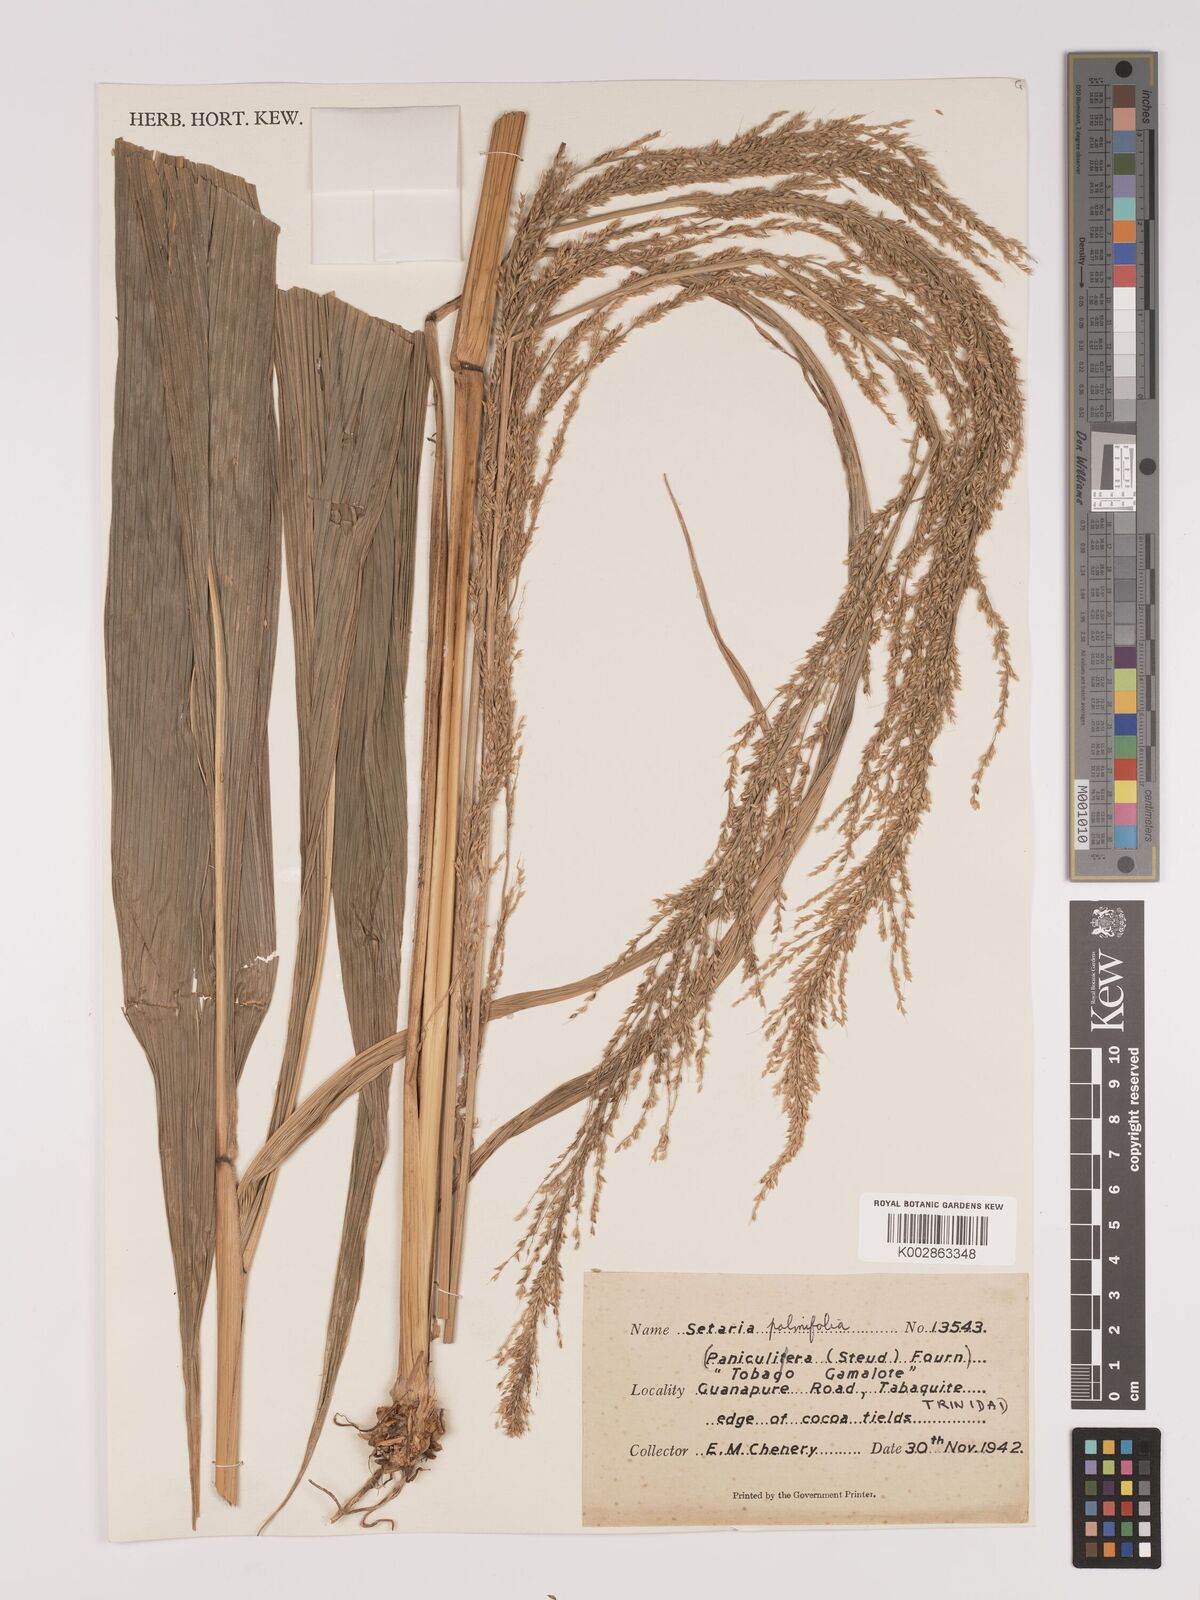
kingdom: Plantae
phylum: Tracheophyta
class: Liliopsida
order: Poales
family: Poaceae
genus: Setaria
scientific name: Setaria palmifolia
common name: Broadleaved bristlegrass
